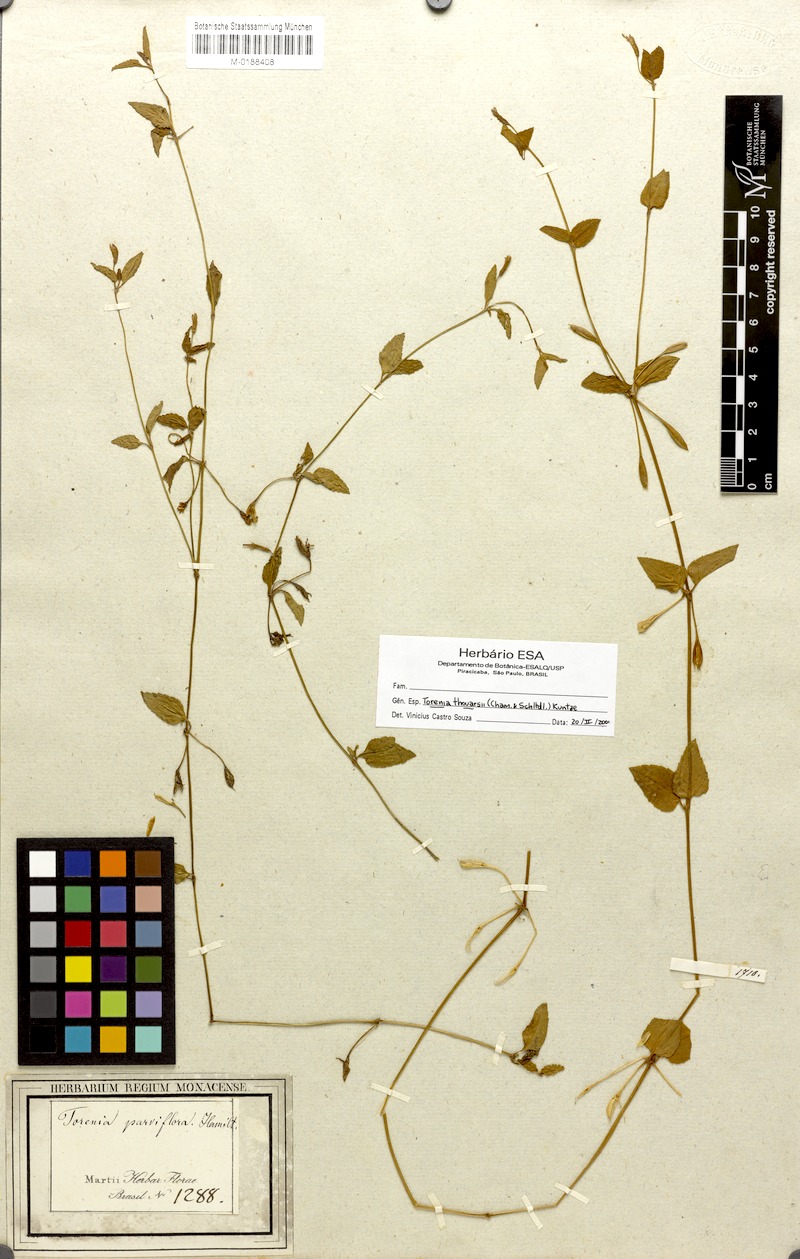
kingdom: Plantae
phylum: Tracheophyta
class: Magnoliopsida
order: Lamiales
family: Linderniaceae
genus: Torenia
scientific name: Torenia thouarsii
